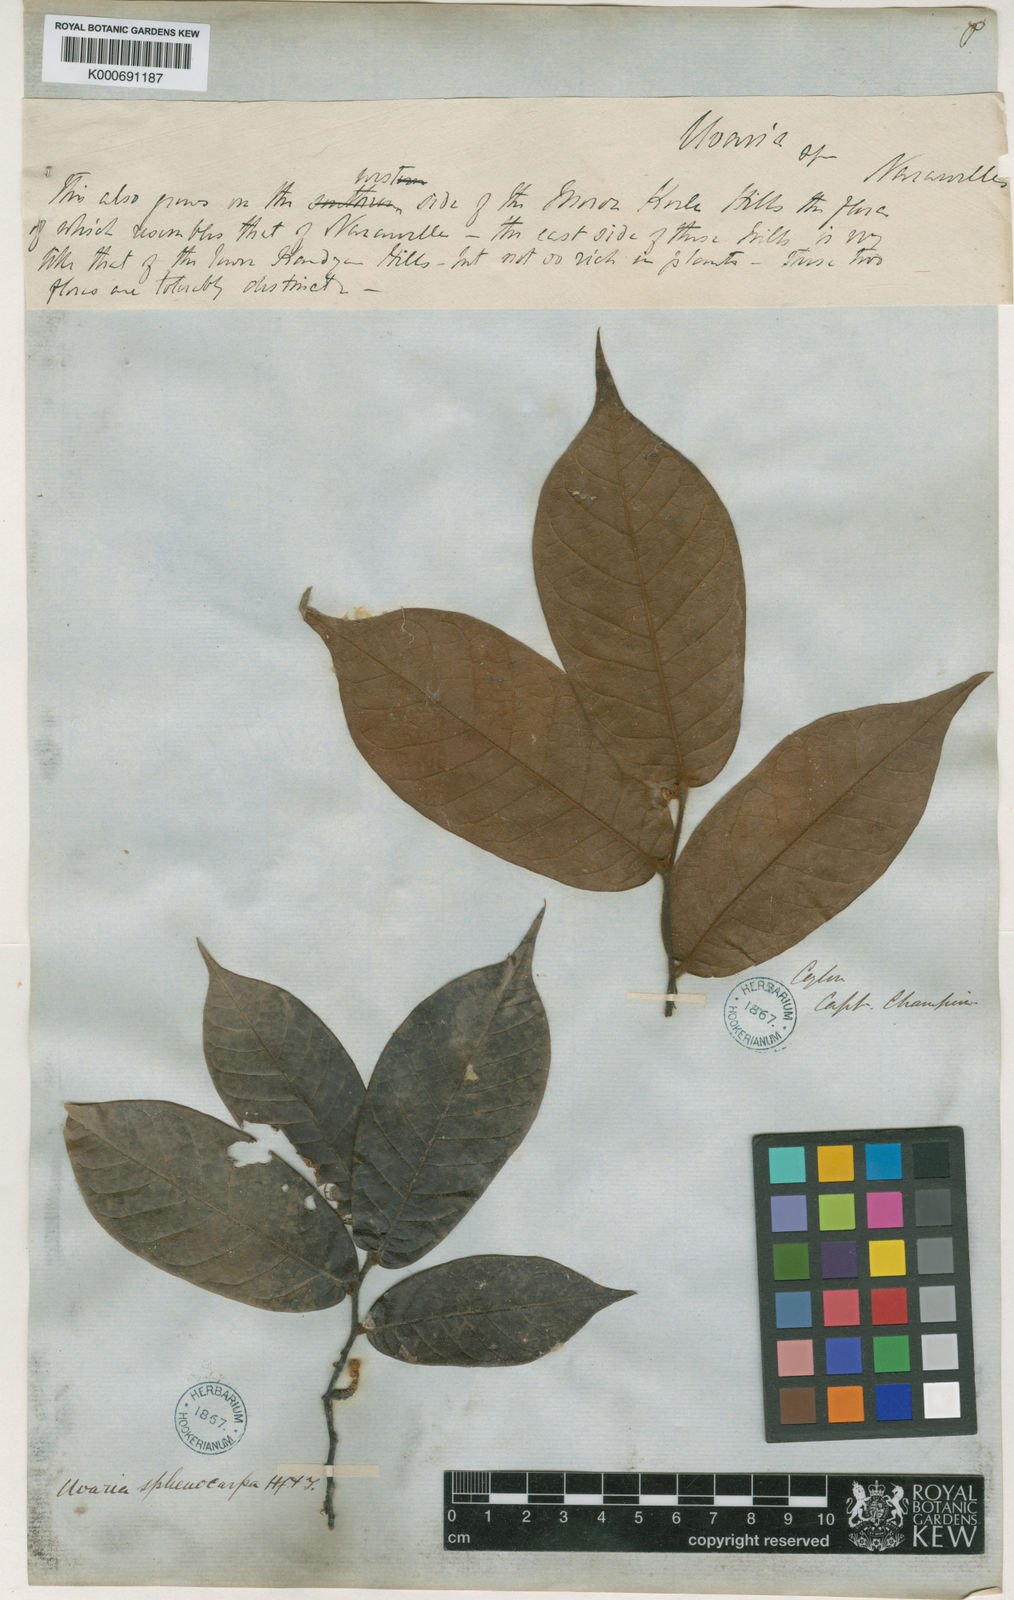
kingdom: Plantae
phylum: Tracheophyta
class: Magnoliopsida
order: Magnoliales
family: Annonaceae
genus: Uvaria
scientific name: Uvaria sphenocarpa
